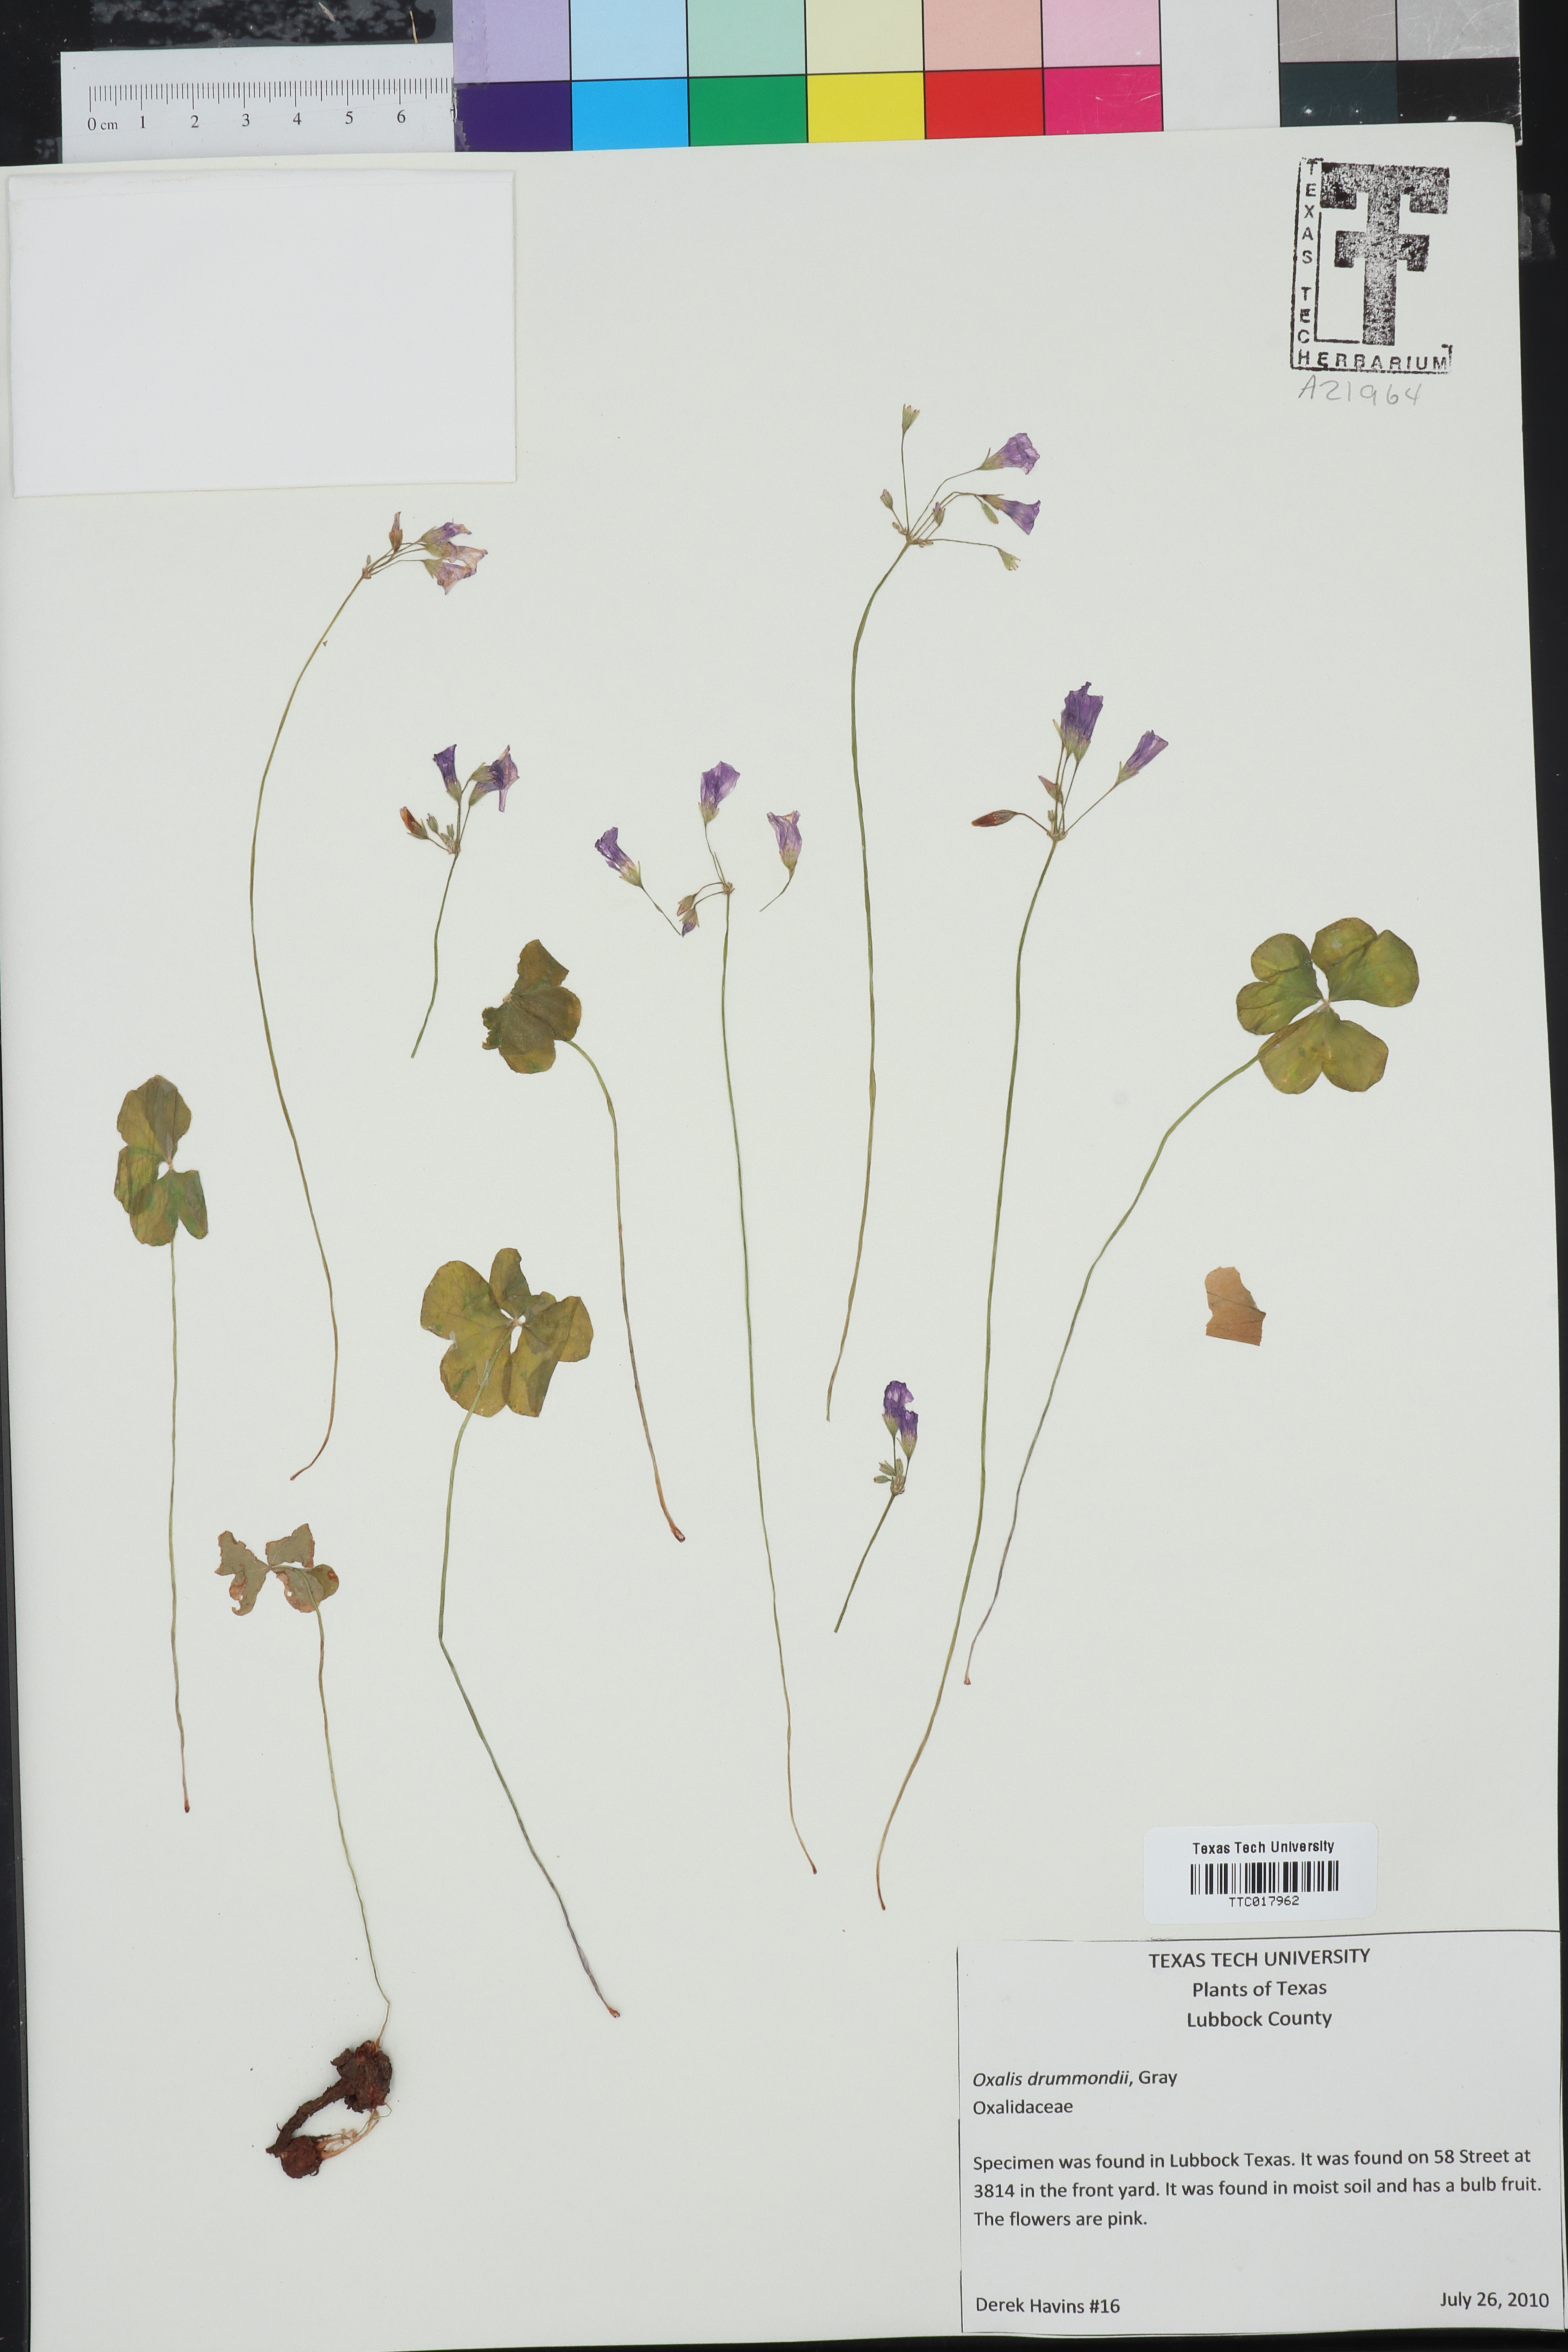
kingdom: Plantae
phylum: Tracheophyta
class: Magnoliopsida
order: Oxalidales
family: Oxalidaceae
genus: Oxalis
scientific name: Oxalis drummondii
